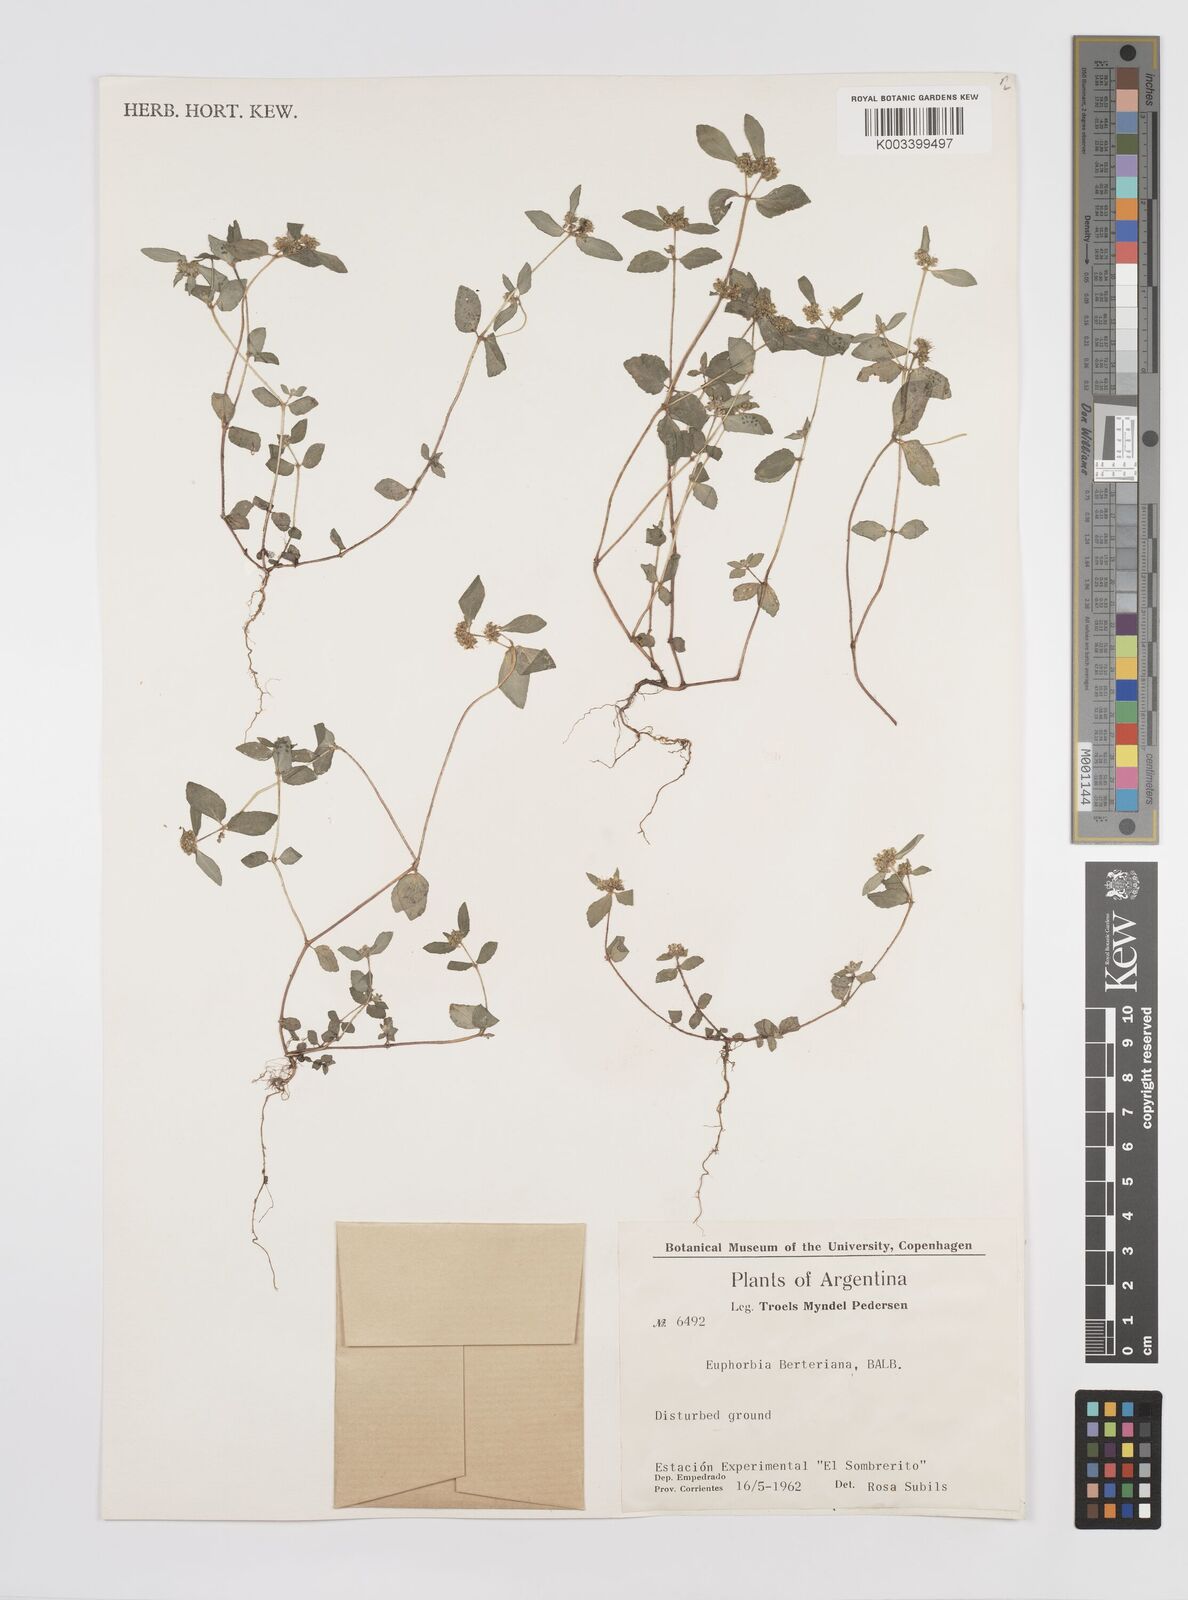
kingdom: Plantae
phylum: Tracheophyta
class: Magnoliopsida
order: Malpighiales
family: Euphorbiaceae
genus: Euphorbia
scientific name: Euphorbia berteroana
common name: Bertero's sandmat
